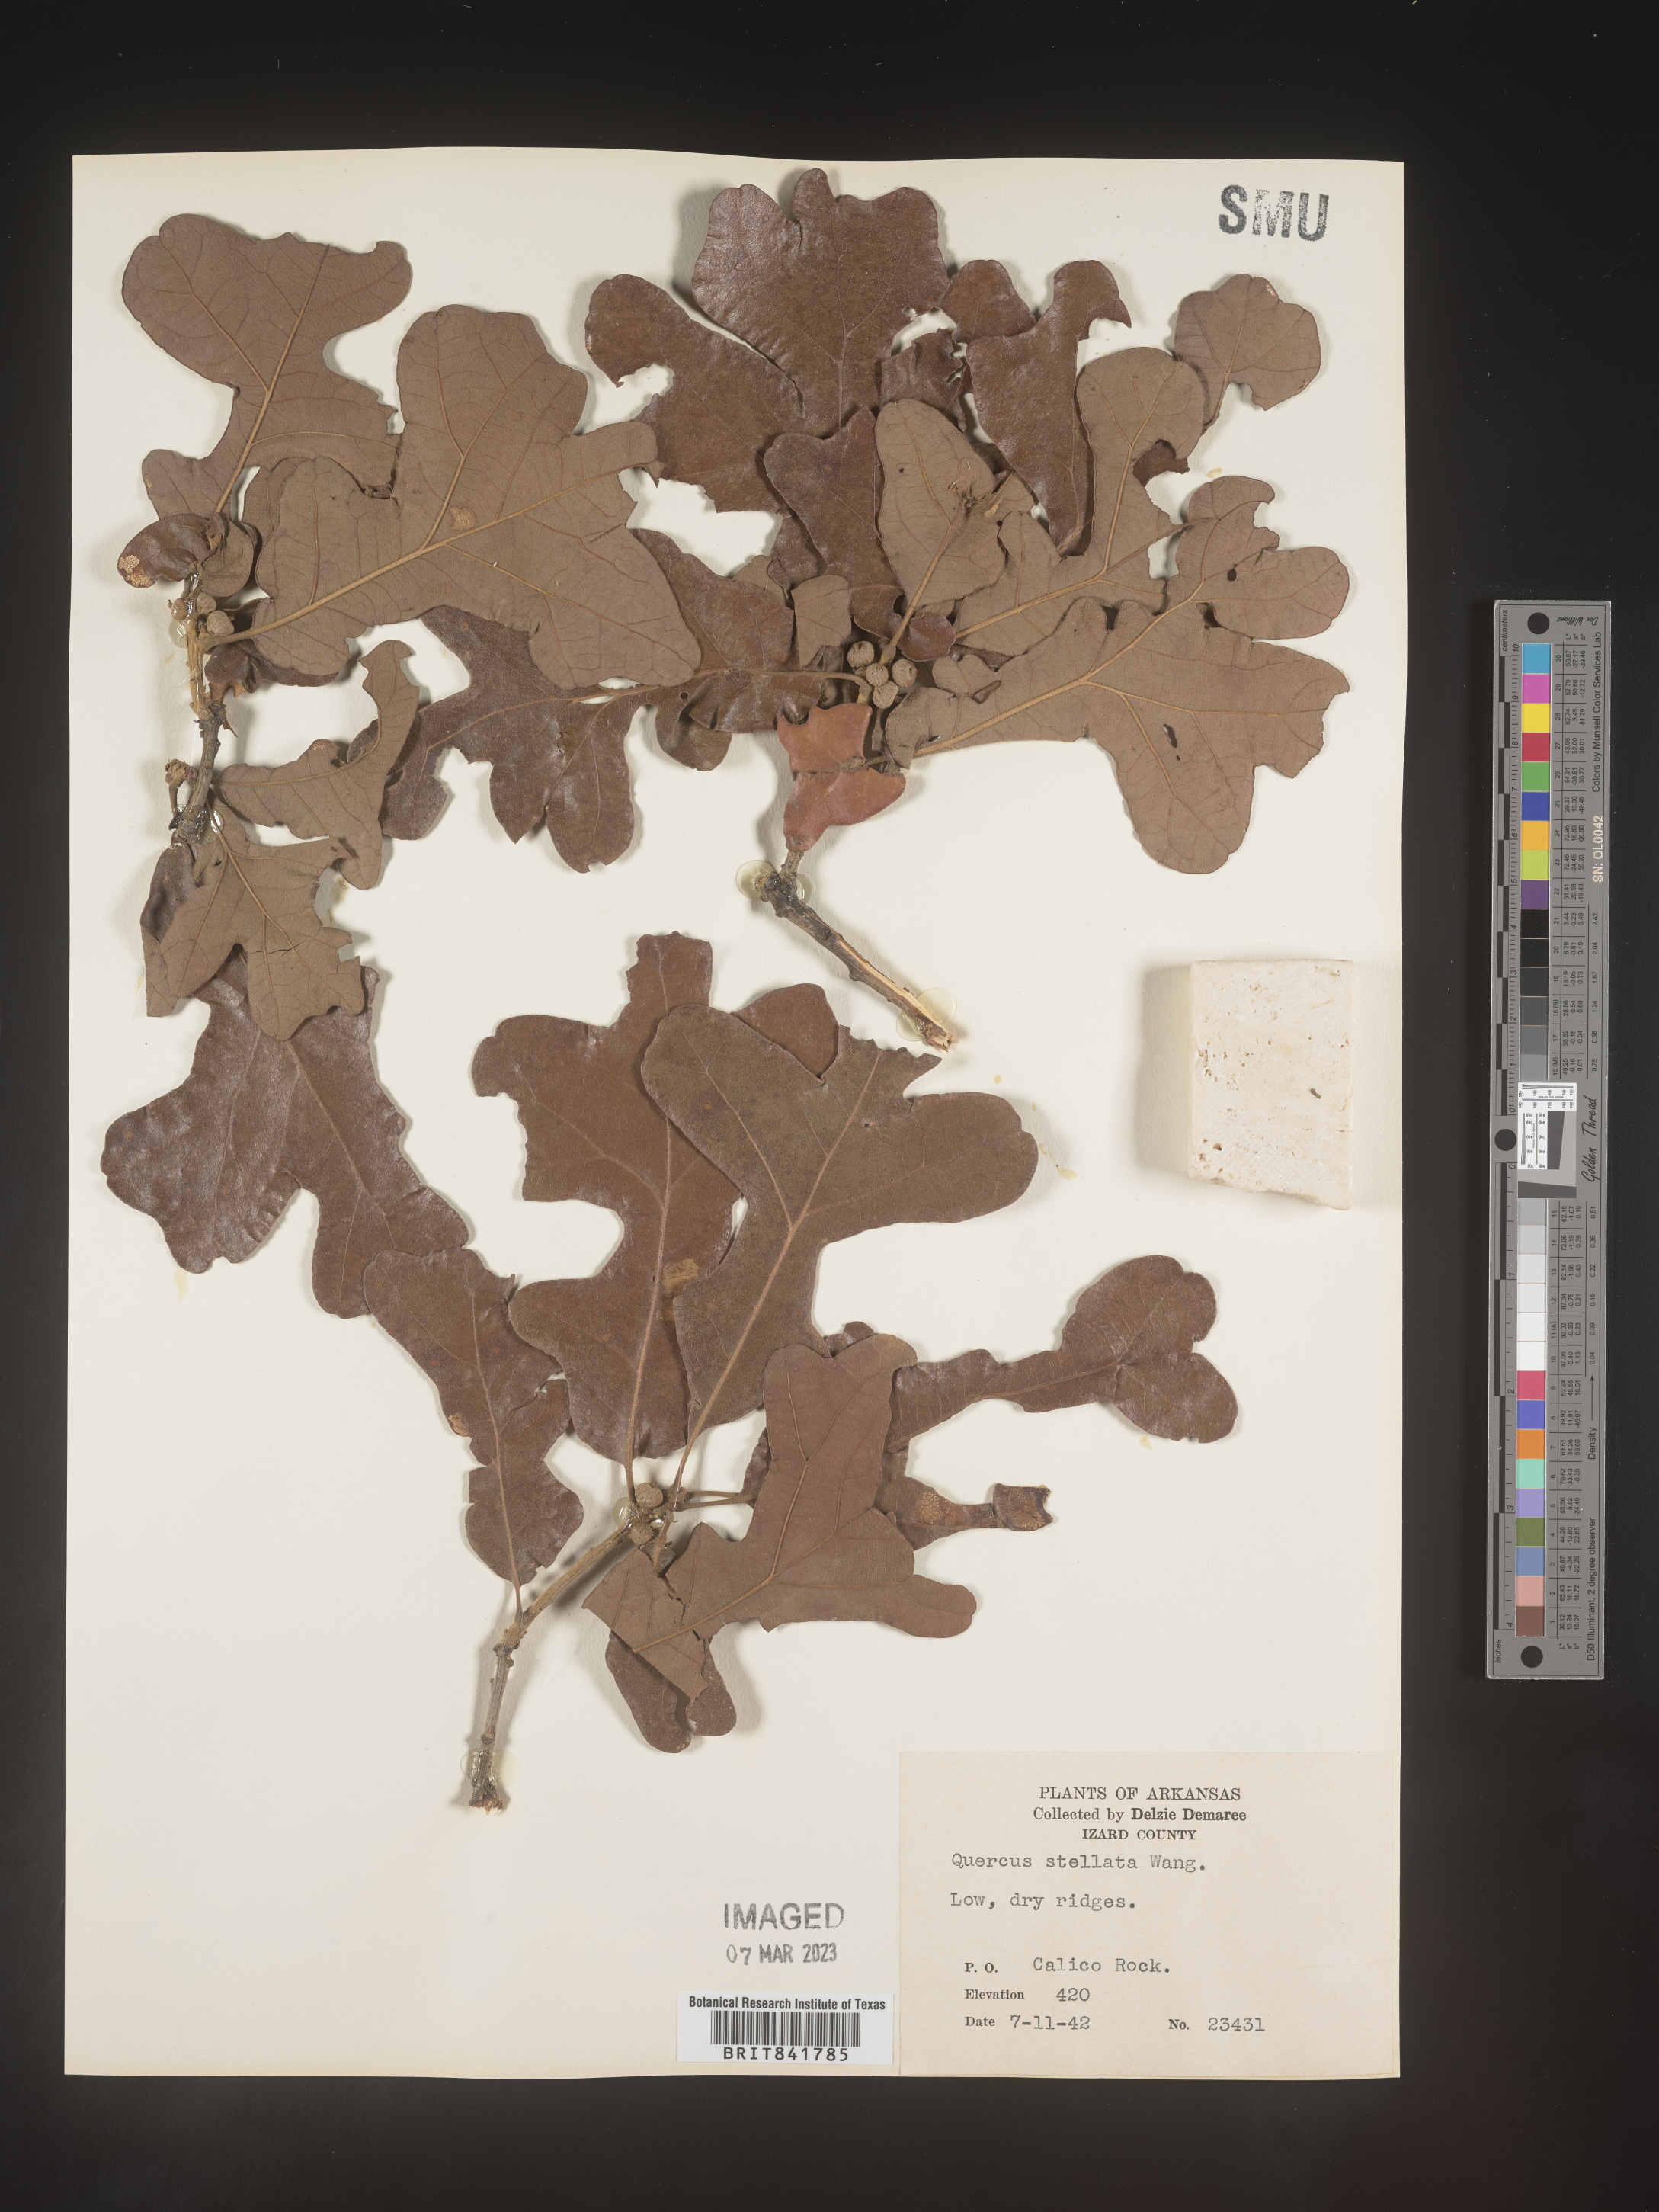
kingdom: Plantae
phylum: Tracheophyta
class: Magnoliopsida
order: Fagales
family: Fagaceae
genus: Quercus
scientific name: Quercus stellata
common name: Post oak
